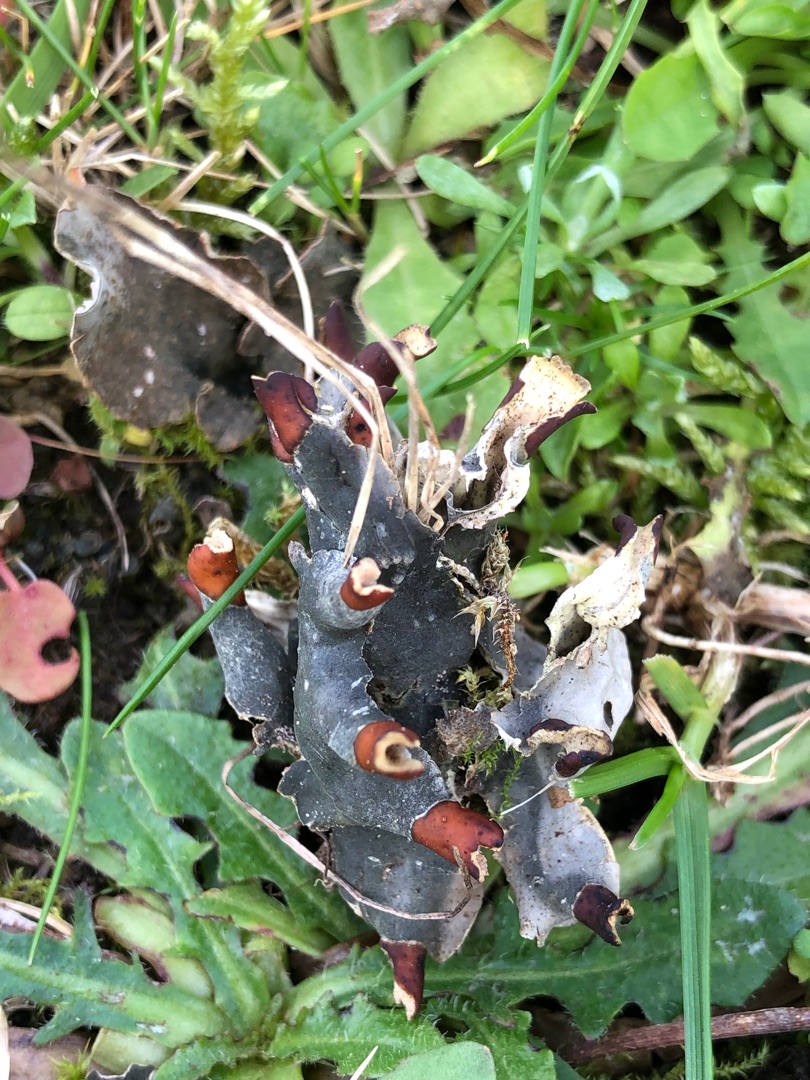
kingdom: Fungi
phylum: Ascomycota
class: Lecanoromycetes
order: Peltigerales
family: Peltigeraceae
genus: Peltigera
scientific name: Peltigera didactyla
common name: Liden skjoldlav
